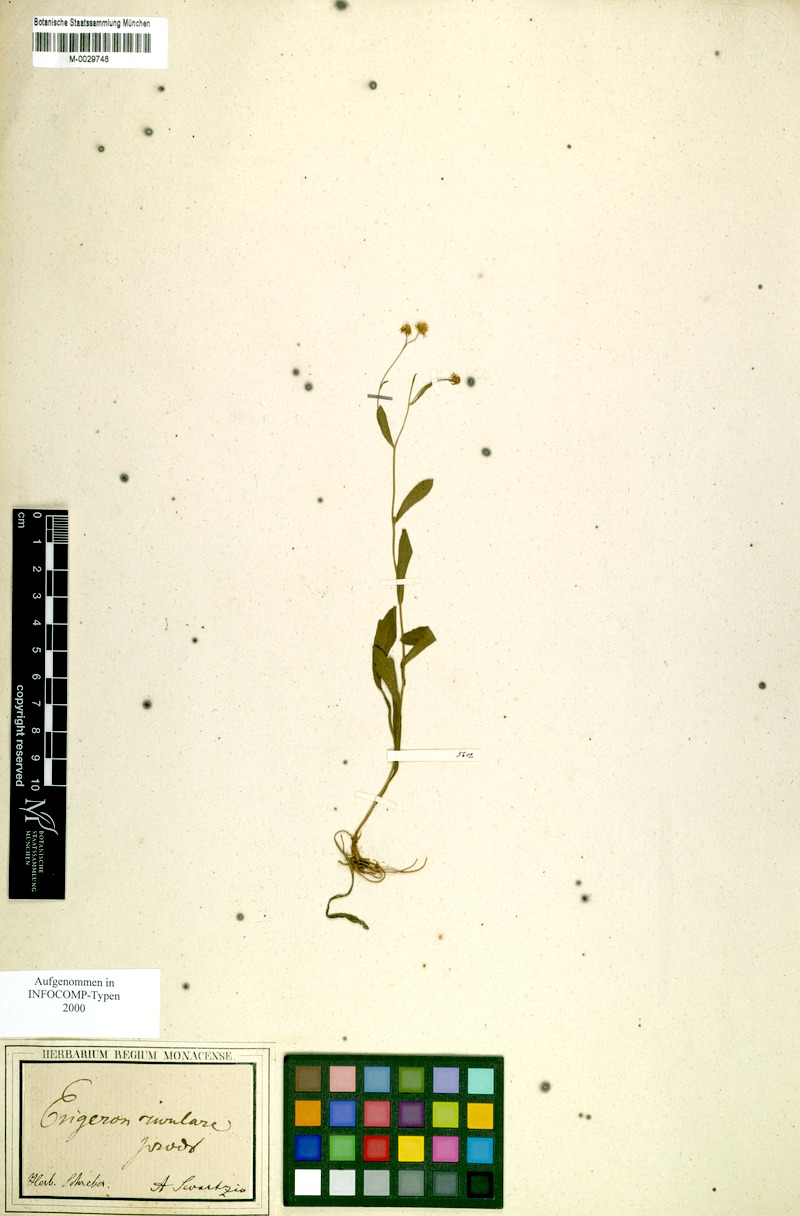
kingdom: Plantae
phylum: Tracheophyta
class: Magnoliopsida
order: Asterales
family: Asteraceae
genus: Erigeron
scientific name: Erigeron jamaicensis
